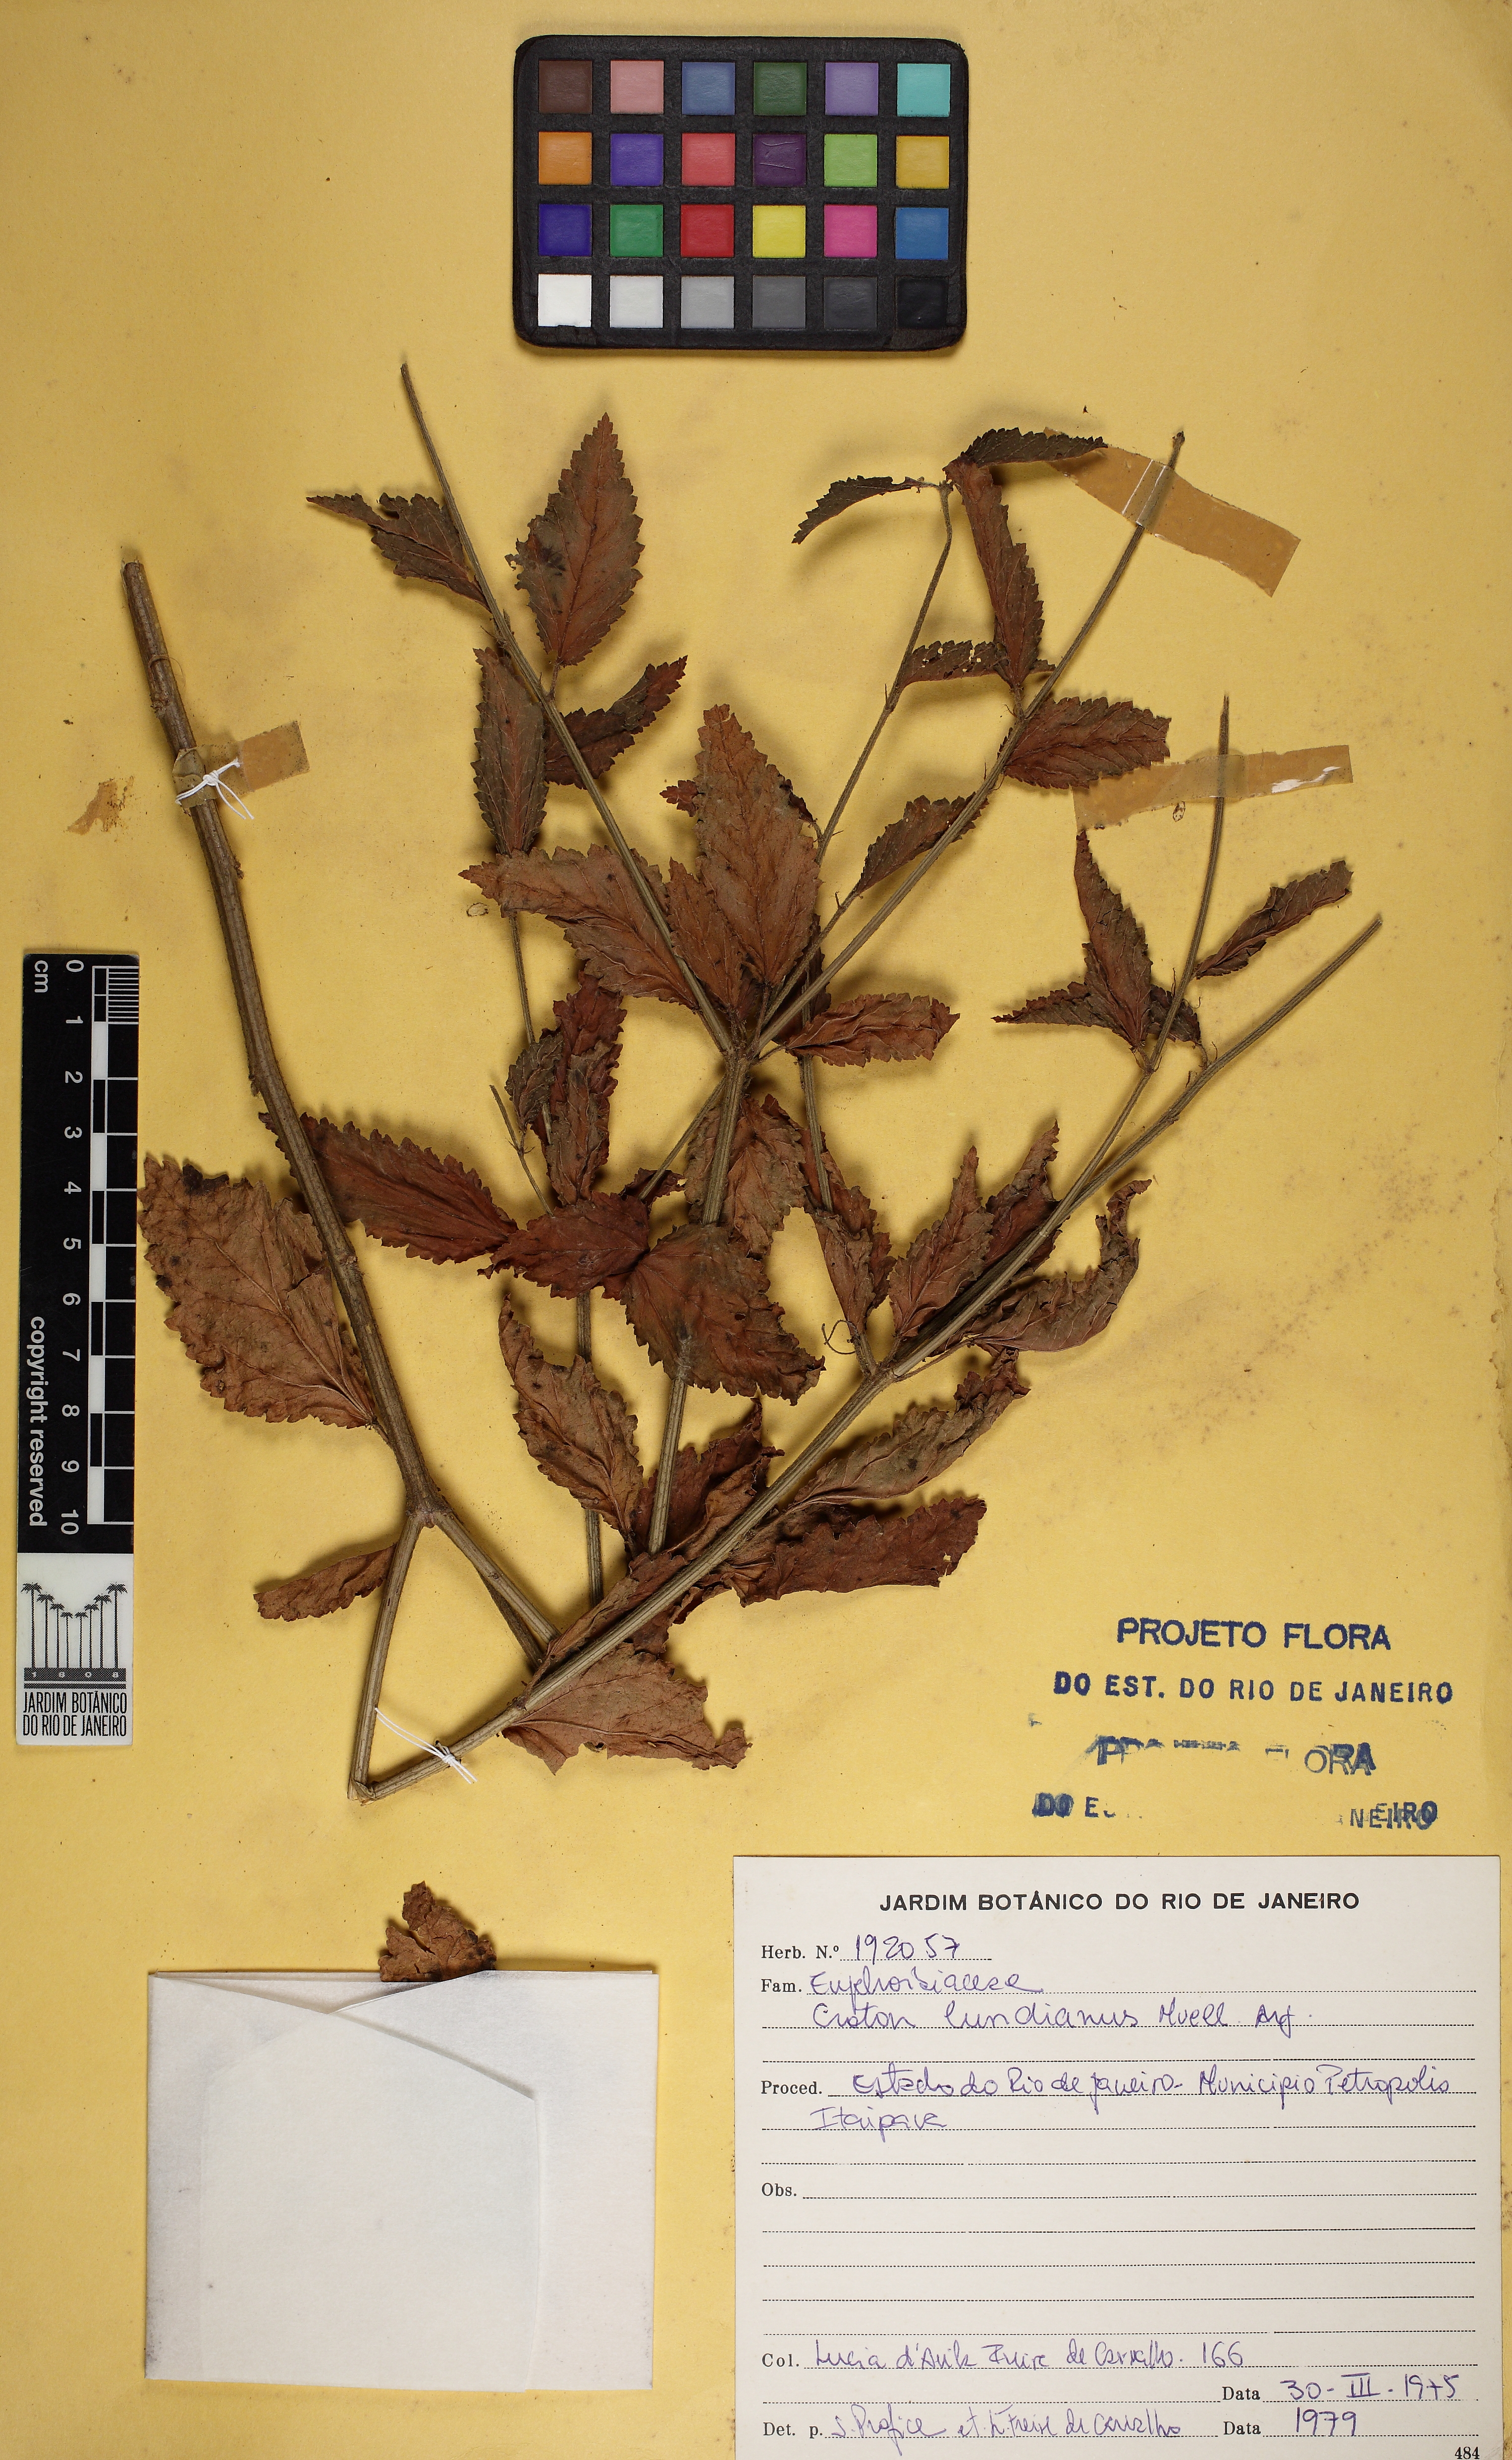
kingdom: Plantae
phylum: Tracheophyta
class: Magnoliopsida
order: Malpighiales
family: Euphorbiaceae
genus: Croton
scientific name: Croton lundianus
